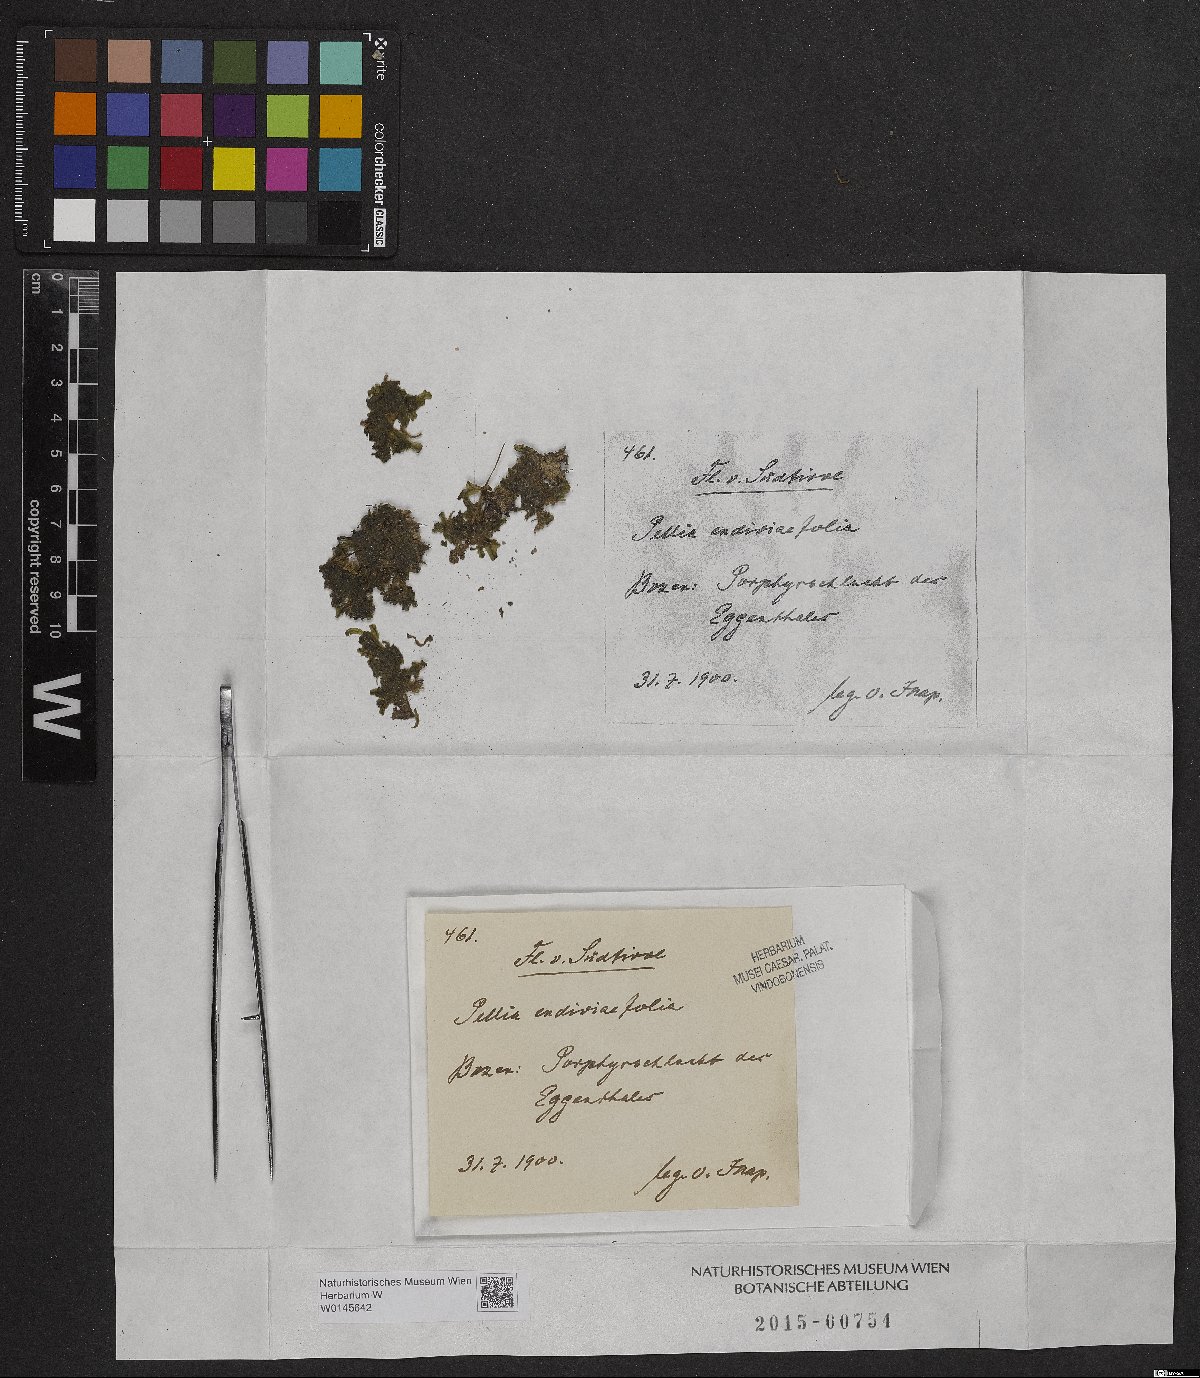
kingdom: Plantae
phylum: Marchantiophyta
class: Jungermanniopsida
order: Pelliales
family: Pelliaceae
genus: Apopellia
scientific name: Apopellia endiviifolia
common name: Endive pellia
